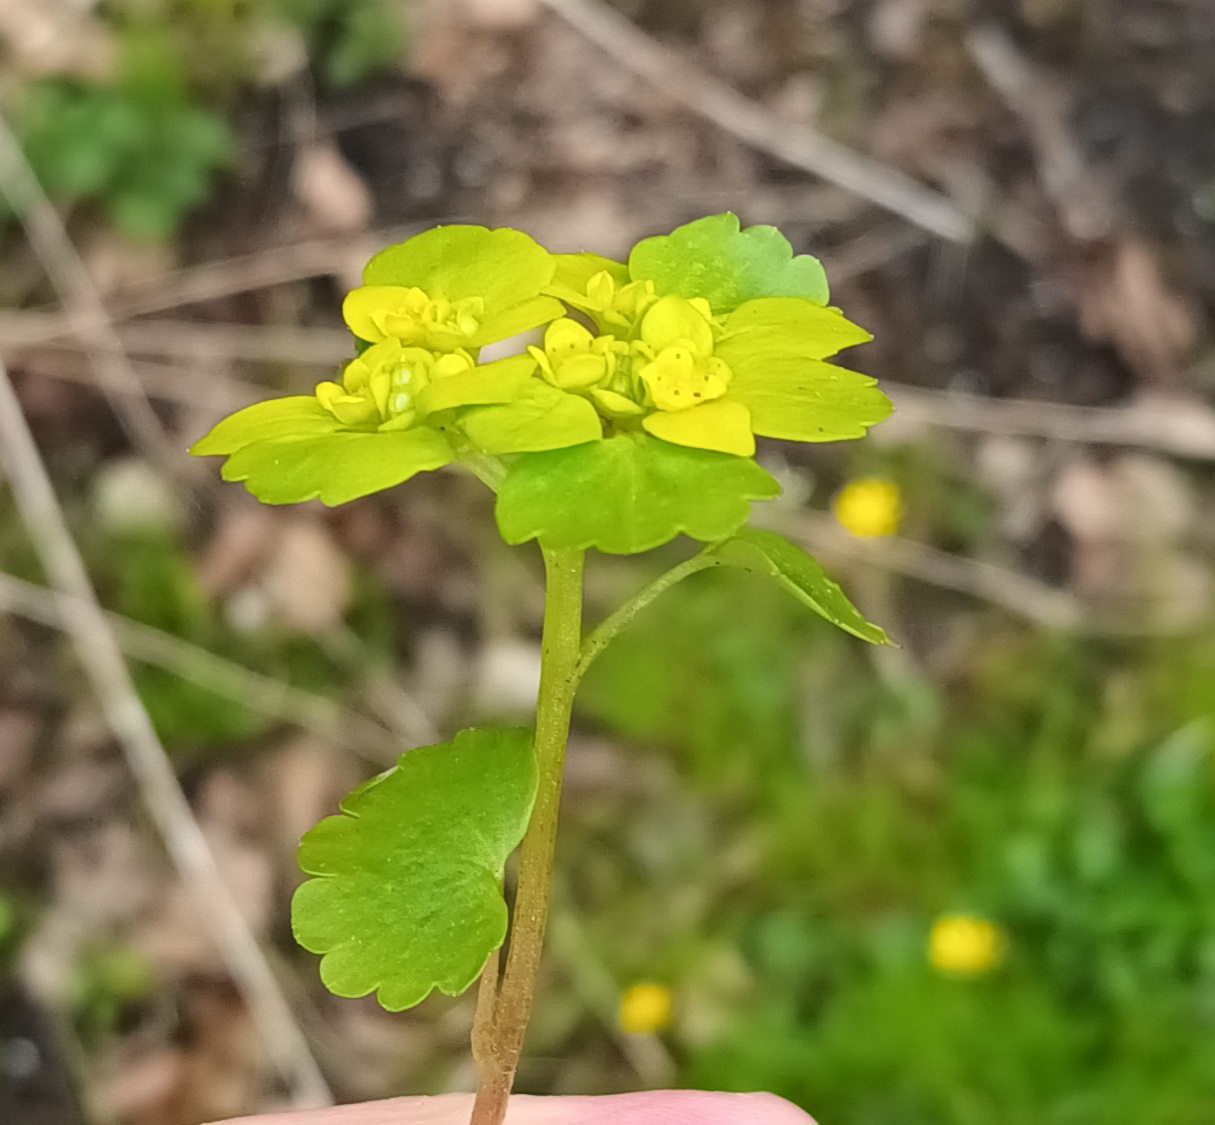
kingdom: Plantae
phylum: Tracheophyta
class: Magnoliopsida
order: Saxifragales
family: Saxifragaceae
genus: Chrysosplenium
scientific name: Chrysosplenium alternifolium
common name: Almindelig milturt
